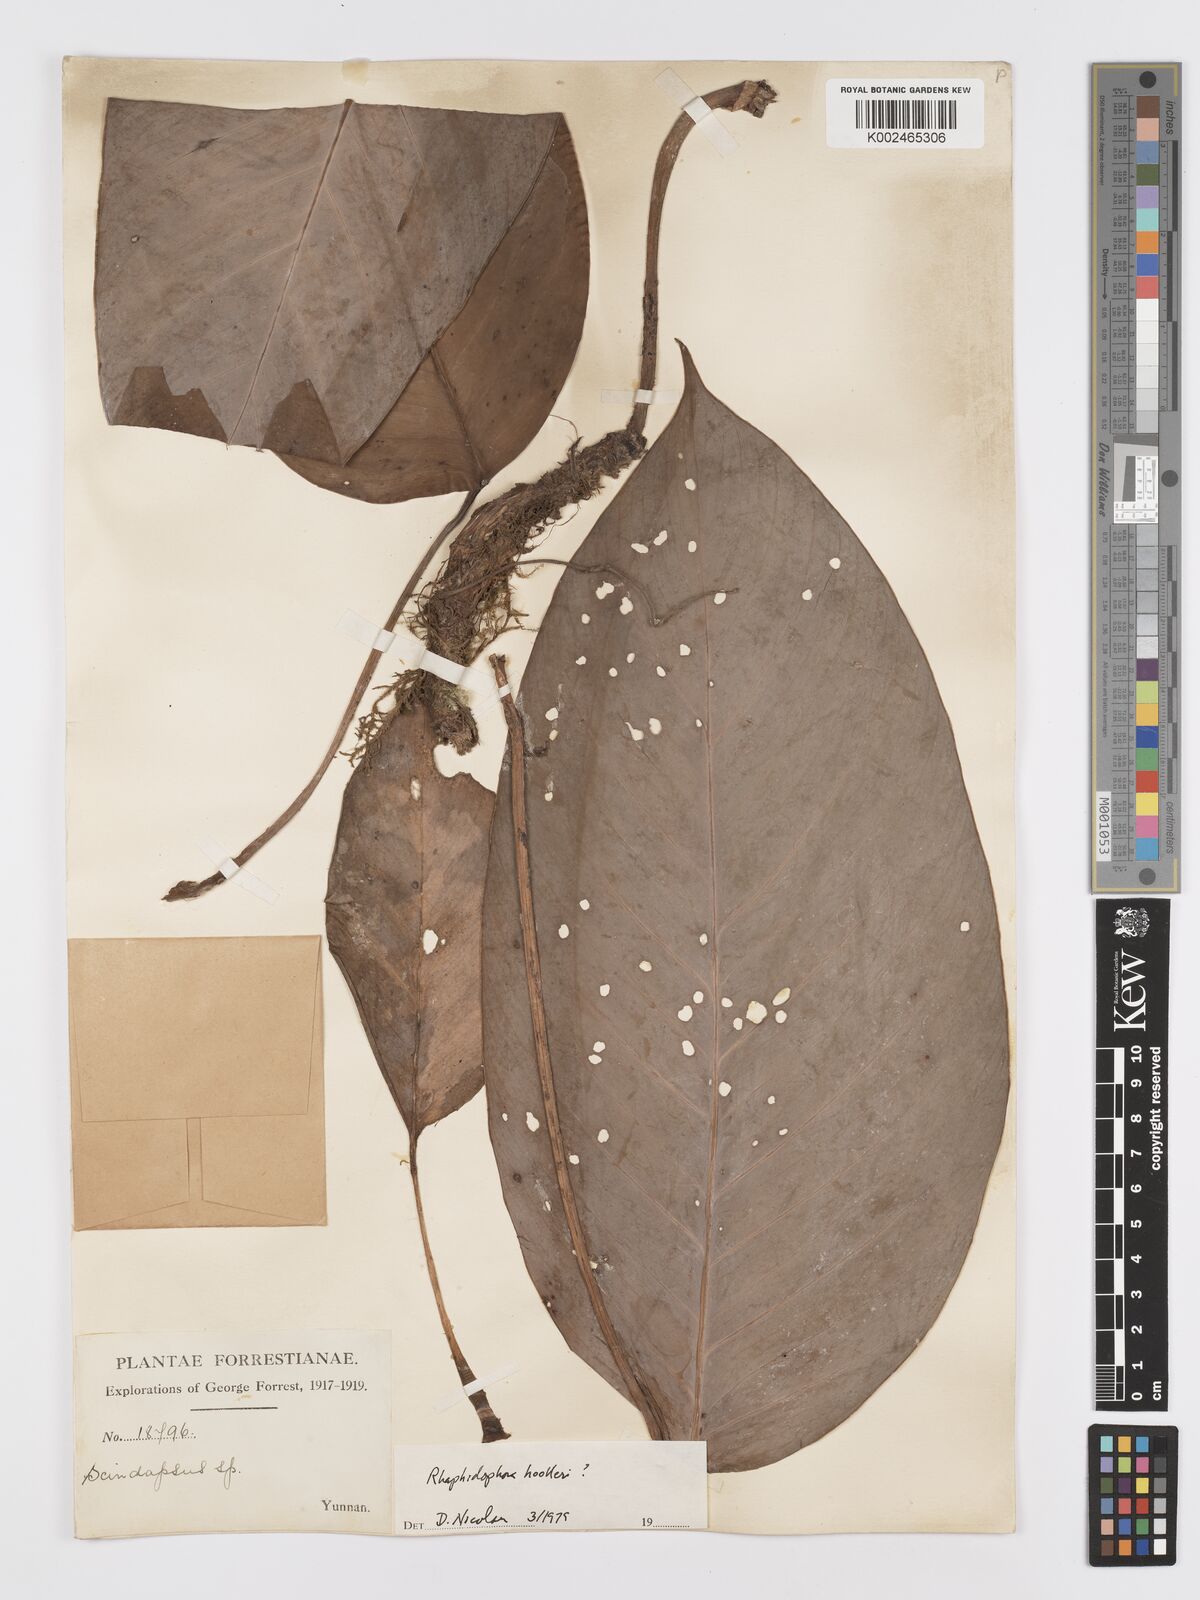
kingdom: Plantae
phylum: Tracheophyta
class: Liliopsida
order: Alismatales
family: Araceae
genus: Rhaphidophora
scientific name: Rhaphidophora
